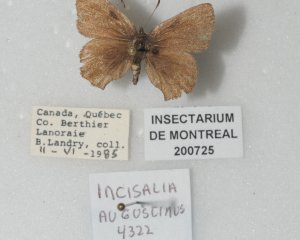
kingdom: Animalia
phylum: Arthropoda
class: Insecta
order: Lepidoptera
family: Lycaenidae
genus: Incisalia
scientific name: Incisalia irioides
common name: Brown Elfin
